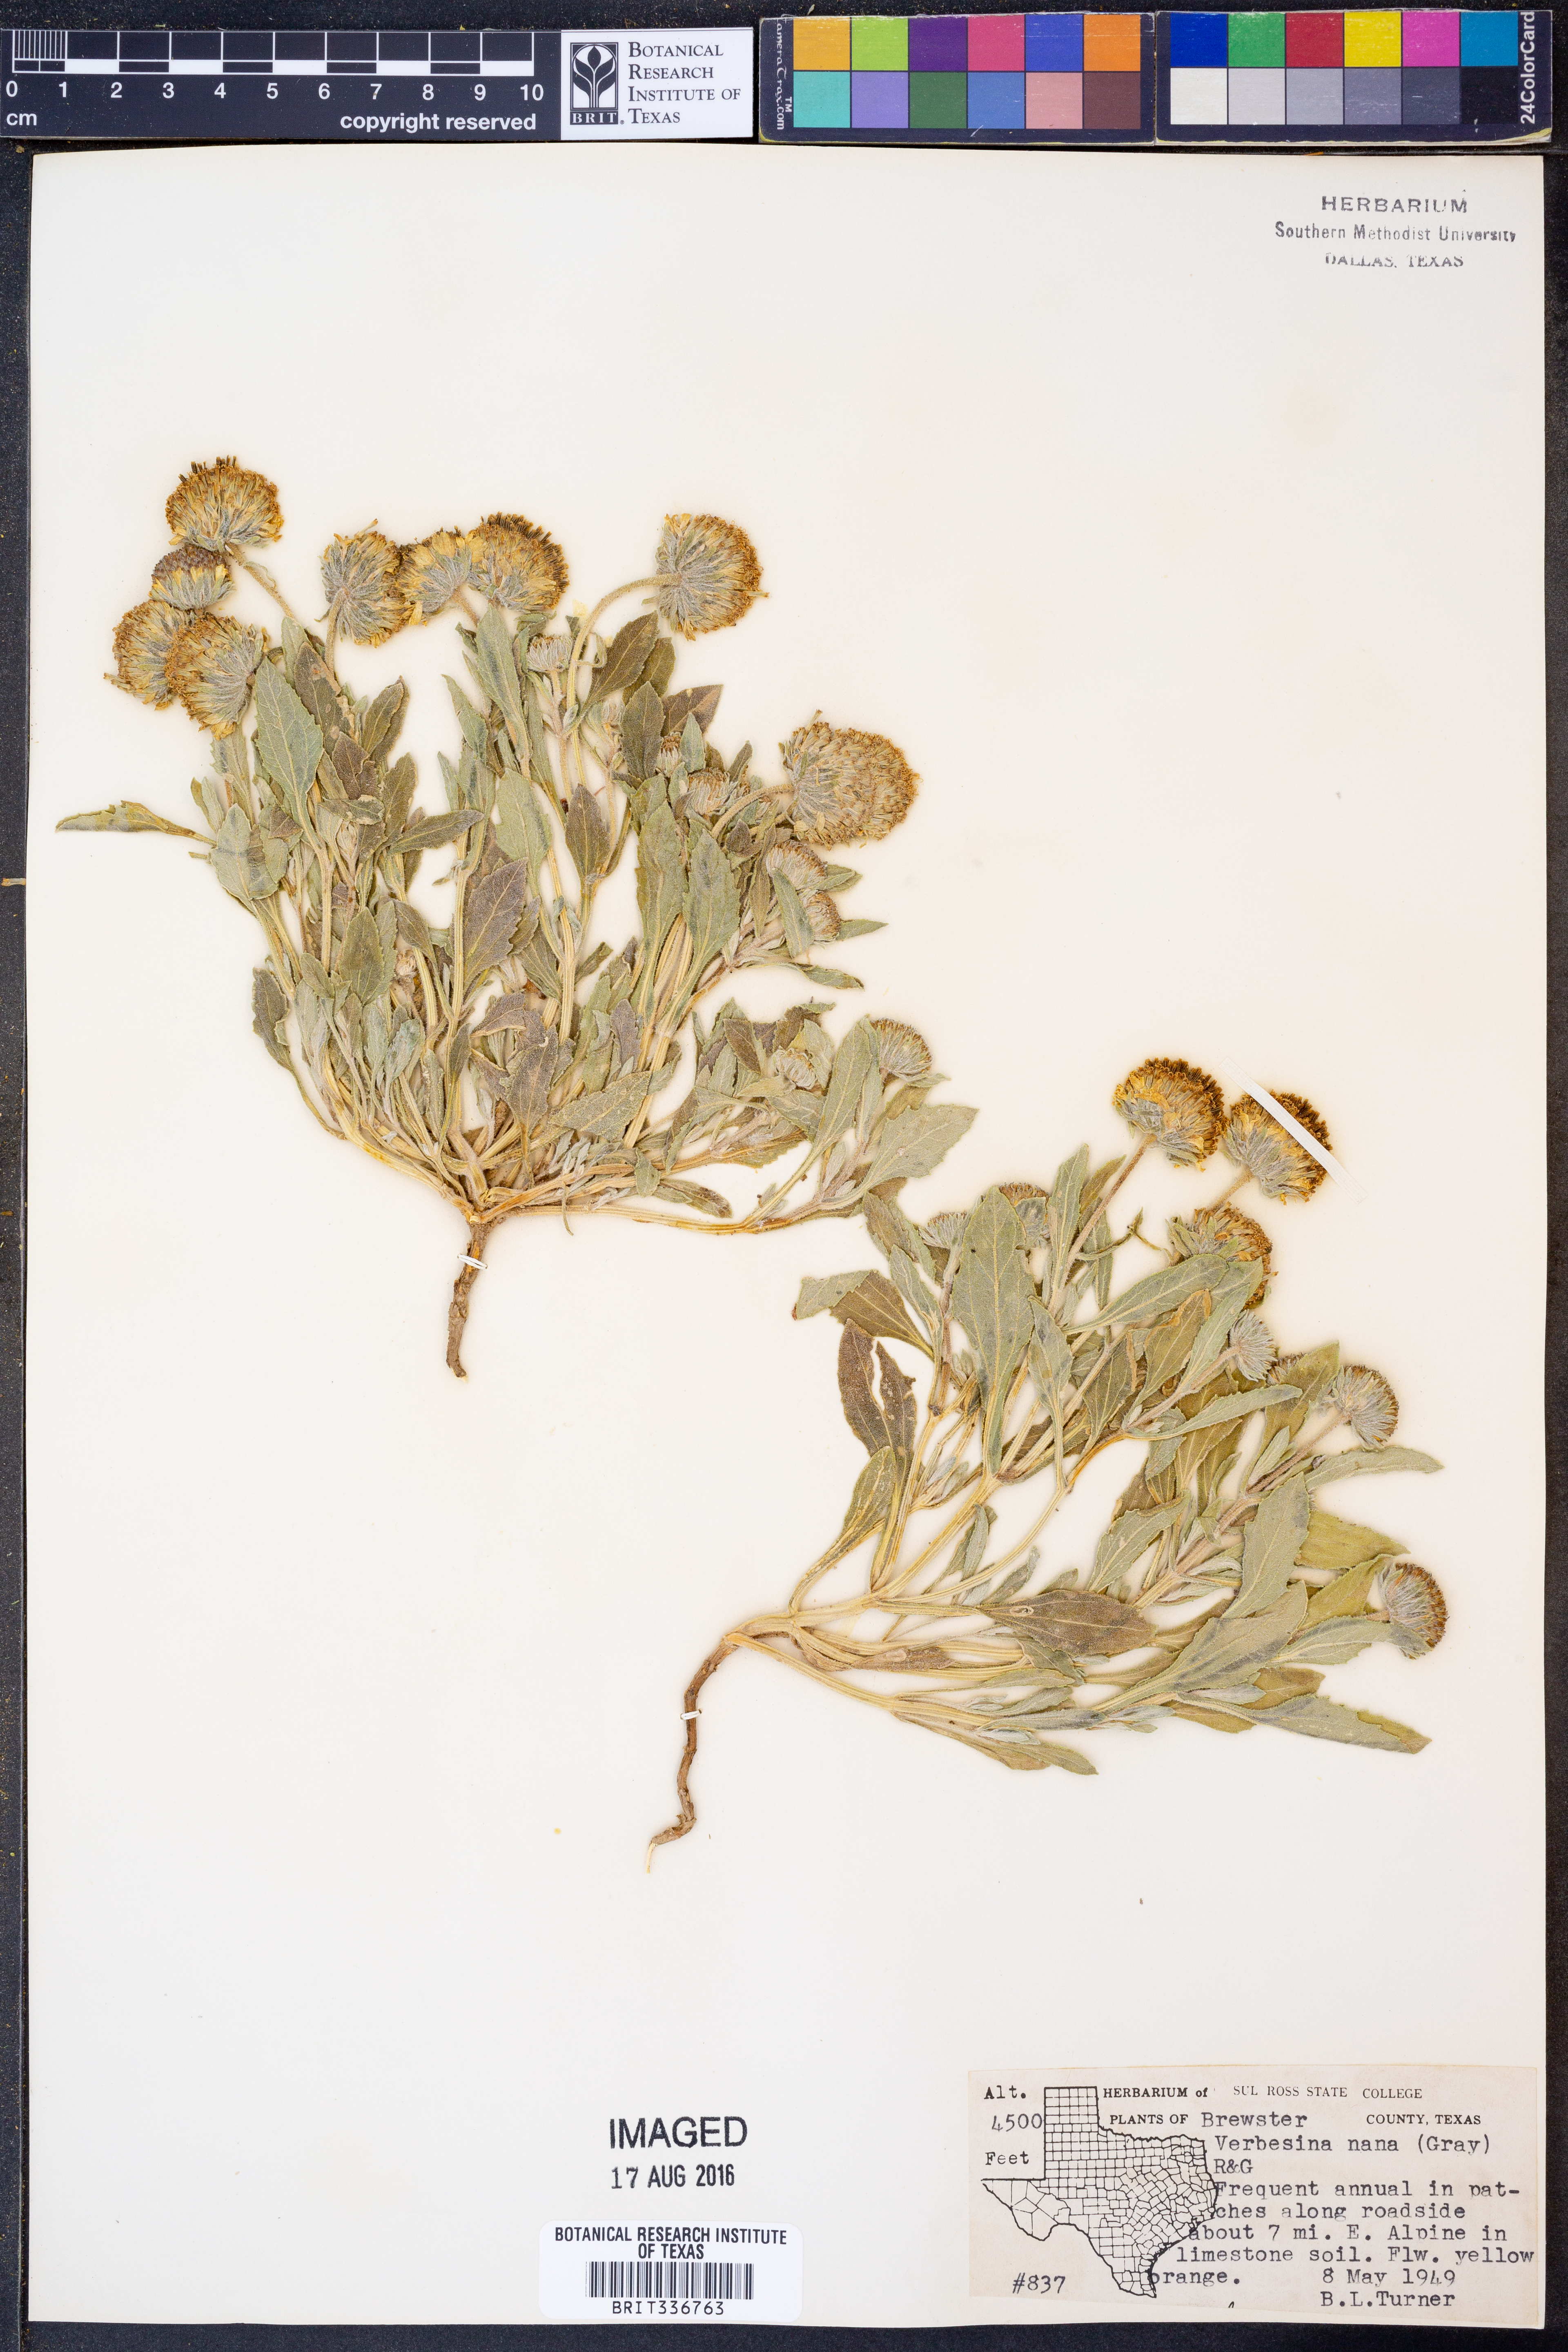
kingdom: Plantae
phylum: Tracheophyta
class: Magnoliopsida
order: Asterales
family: Asteraceae
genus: Verbesina
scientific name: Verbesina nana
